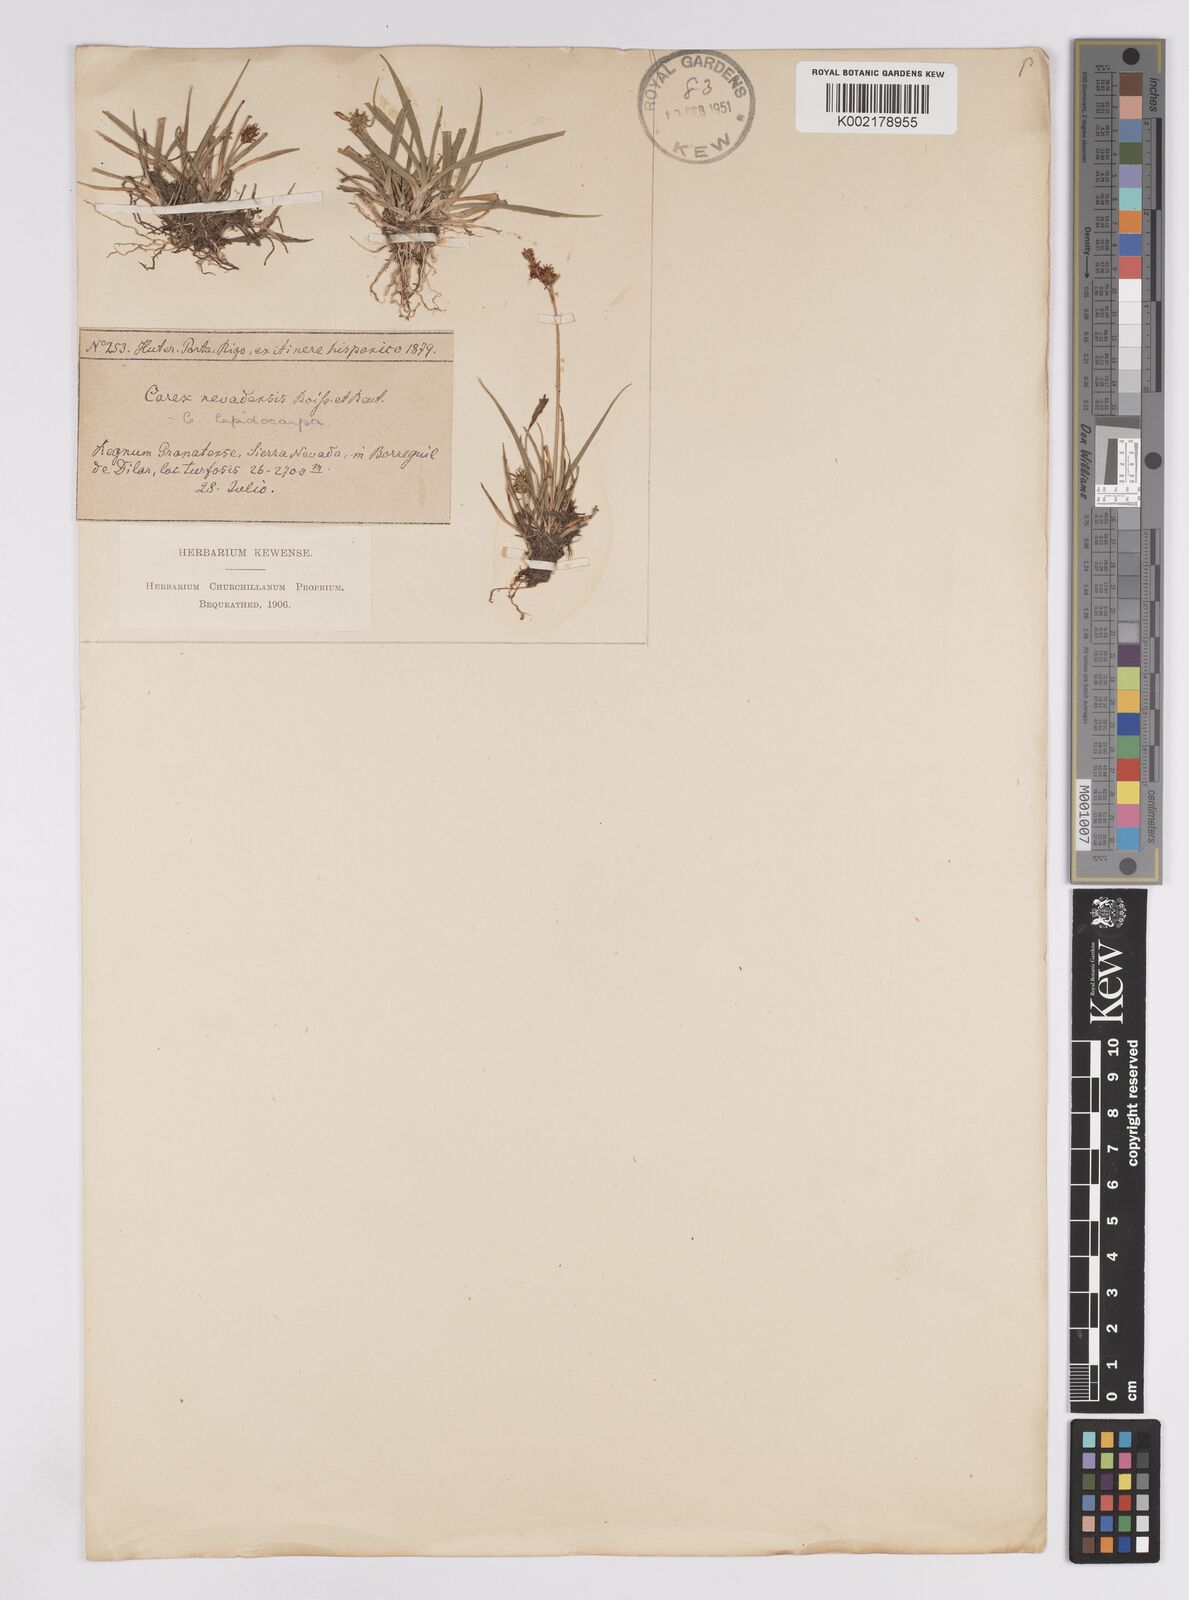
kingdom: Plantae
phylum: Tracheophyta
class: Liliopsida
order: Poales
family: Cyperaceae
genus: Carex
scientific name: Carex lepidocarpa
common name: Long-stalked yellow-sedge
